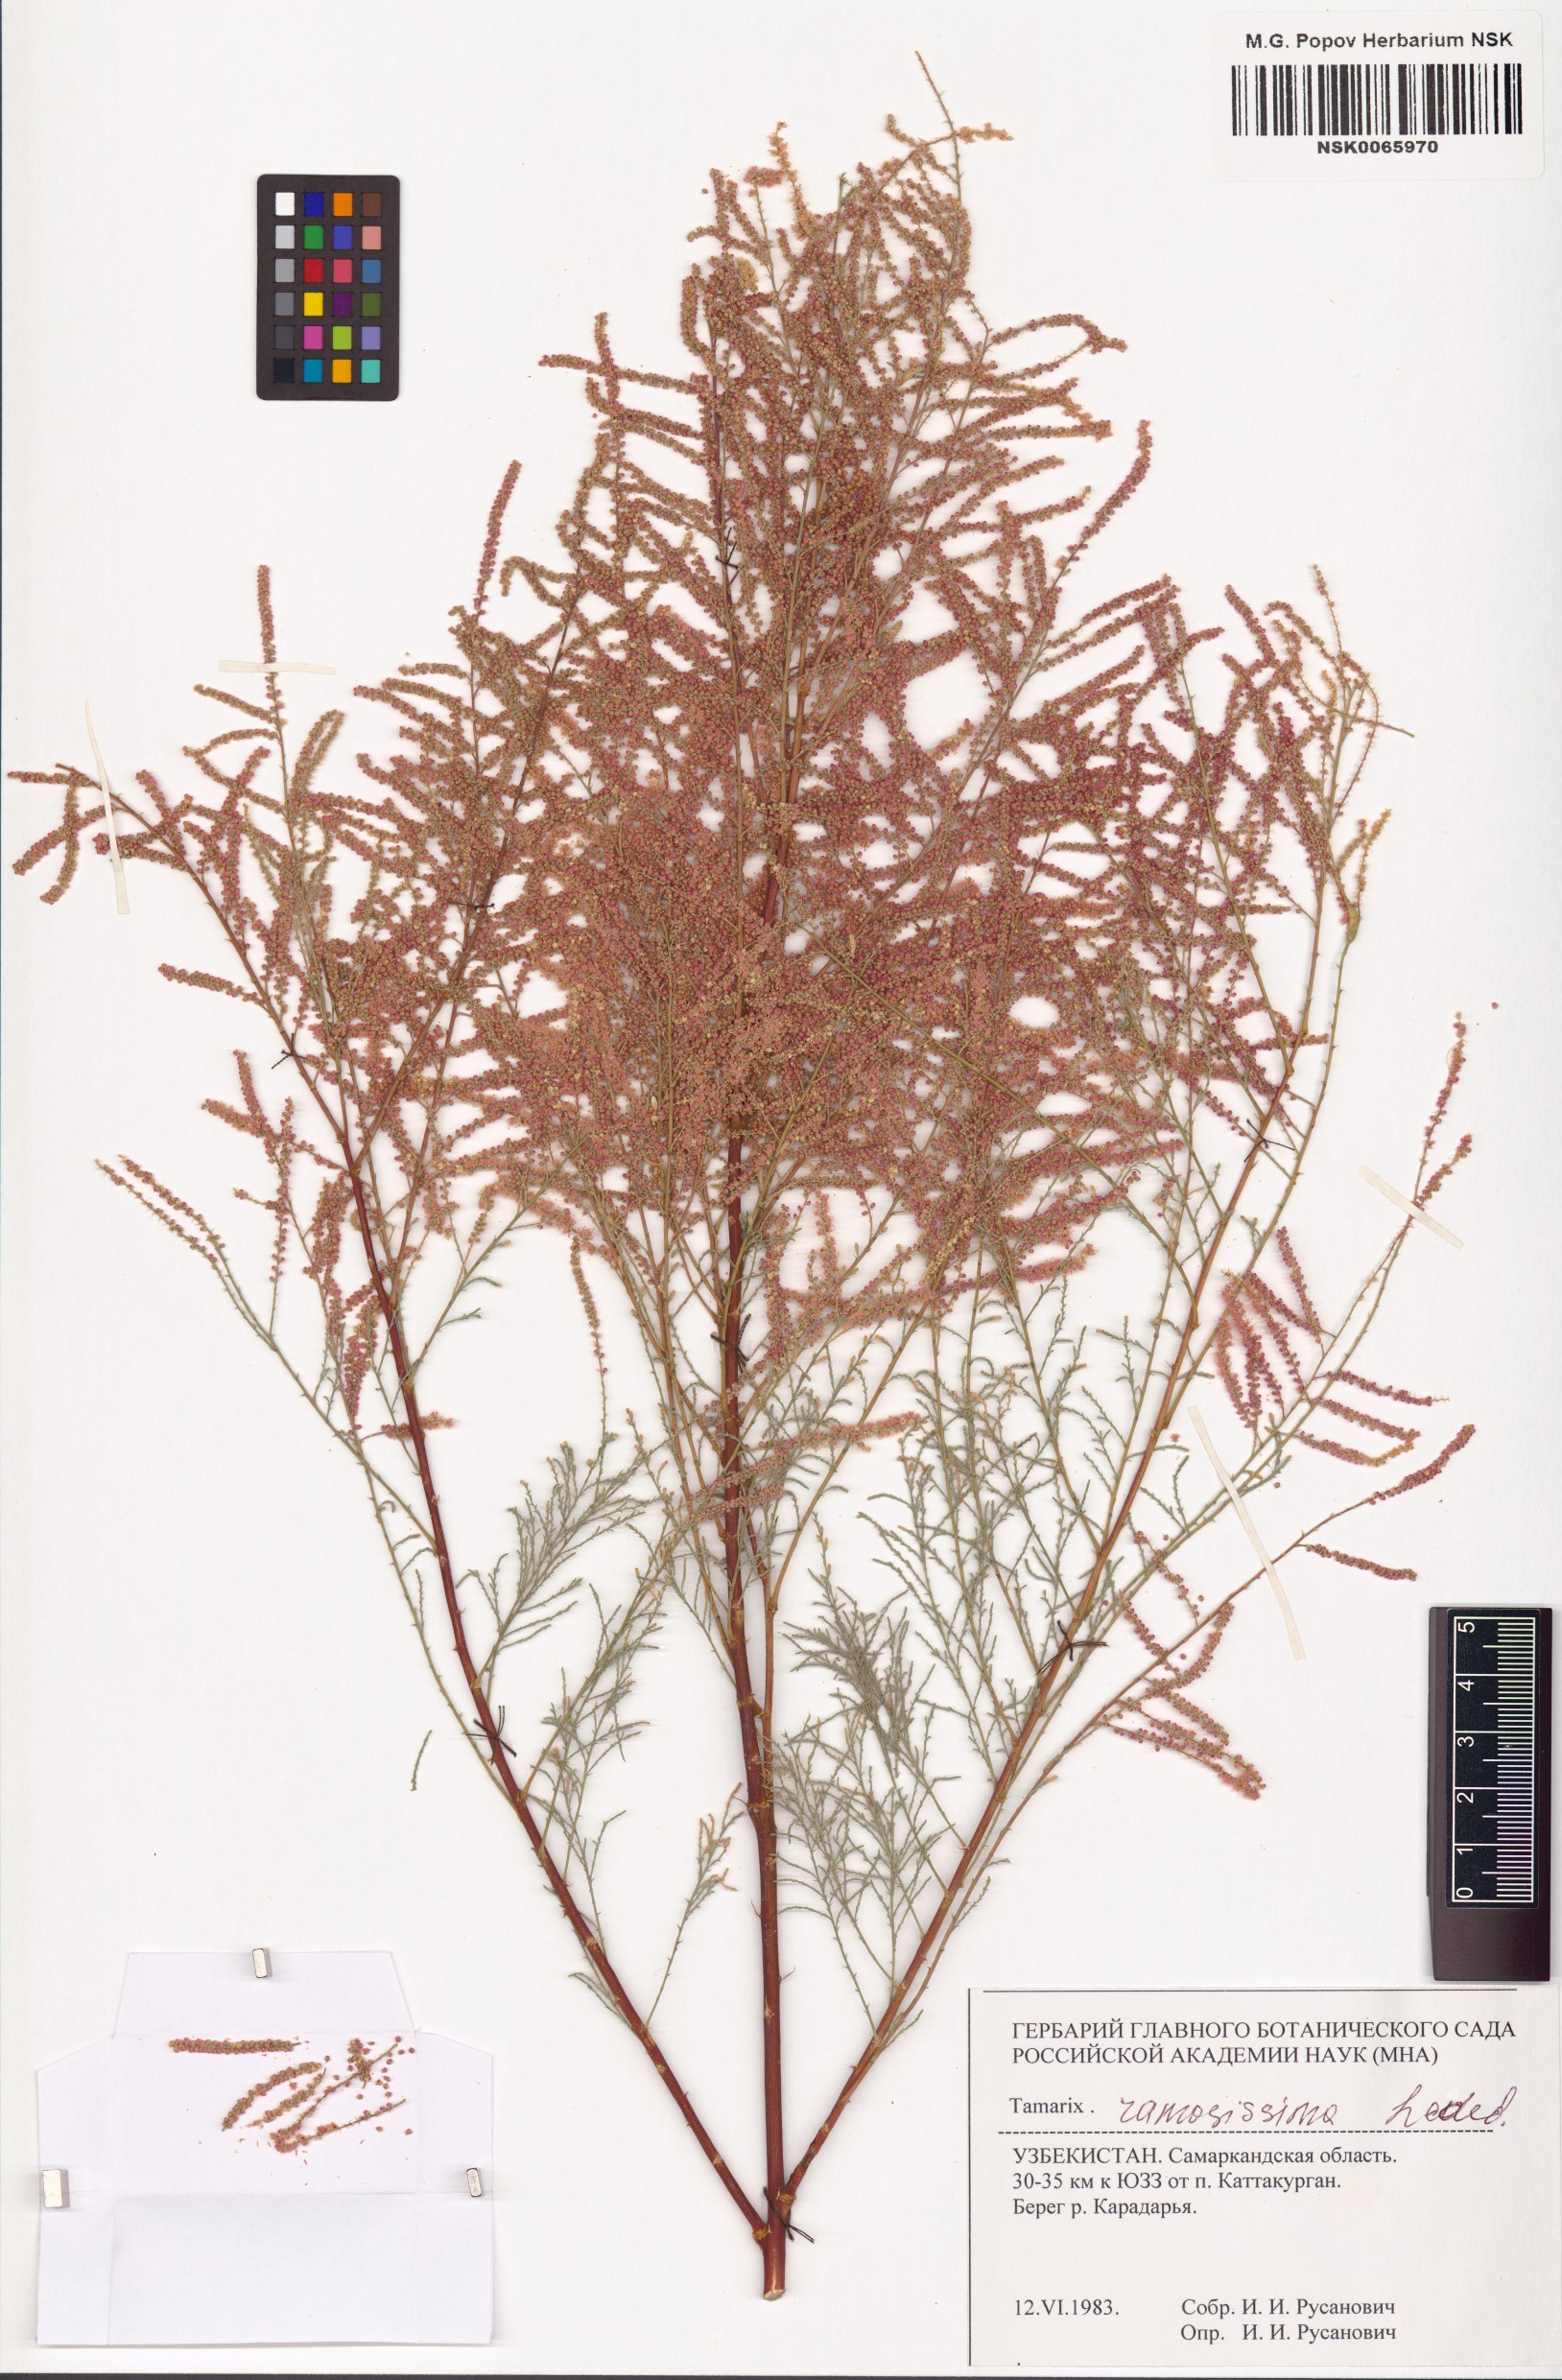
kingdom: Plantae
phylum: Tracheophyta
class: Magnoliopsida
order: Caryophyllales
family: Tamaricaceae
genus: Tamarix
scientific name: Tamarix ramosissima
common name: Pink tamarisk
